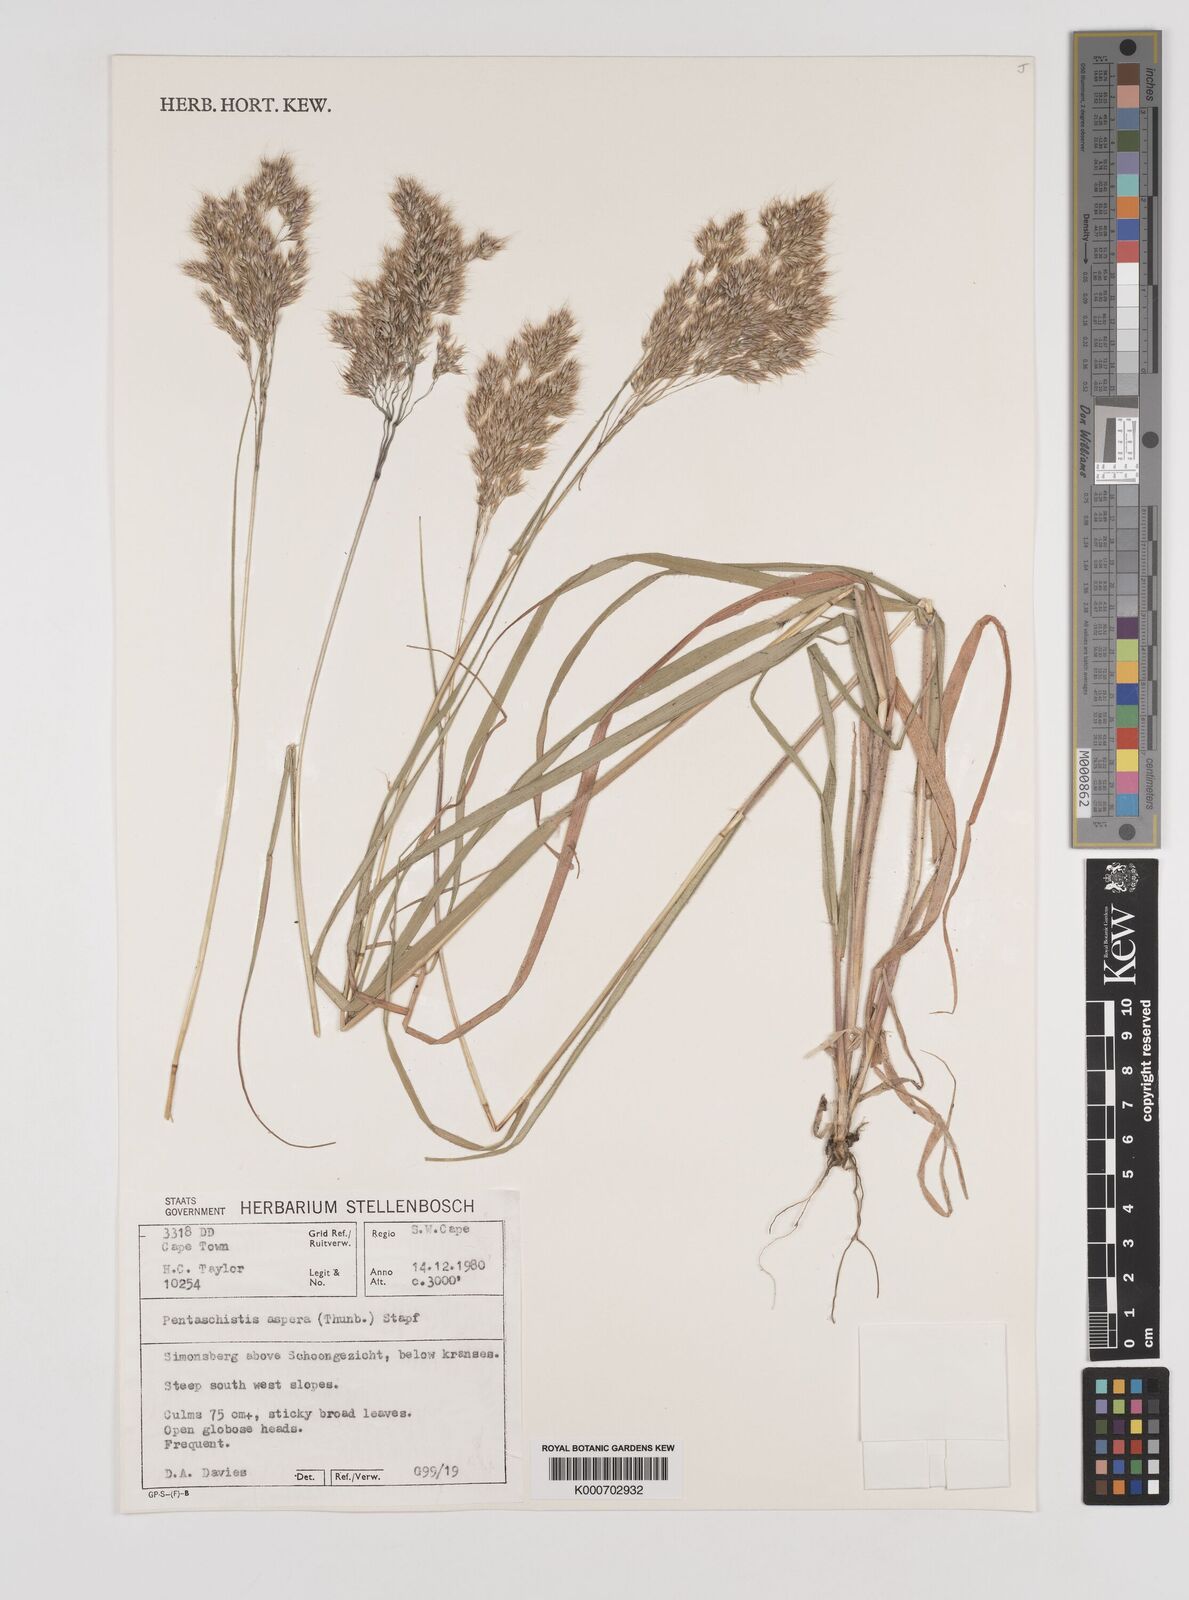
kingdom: Plantae
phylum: Tracheophyta
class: Liliopsida
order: Poales
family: Poaceae
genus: Pentameris
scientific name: Pentameris aspera
